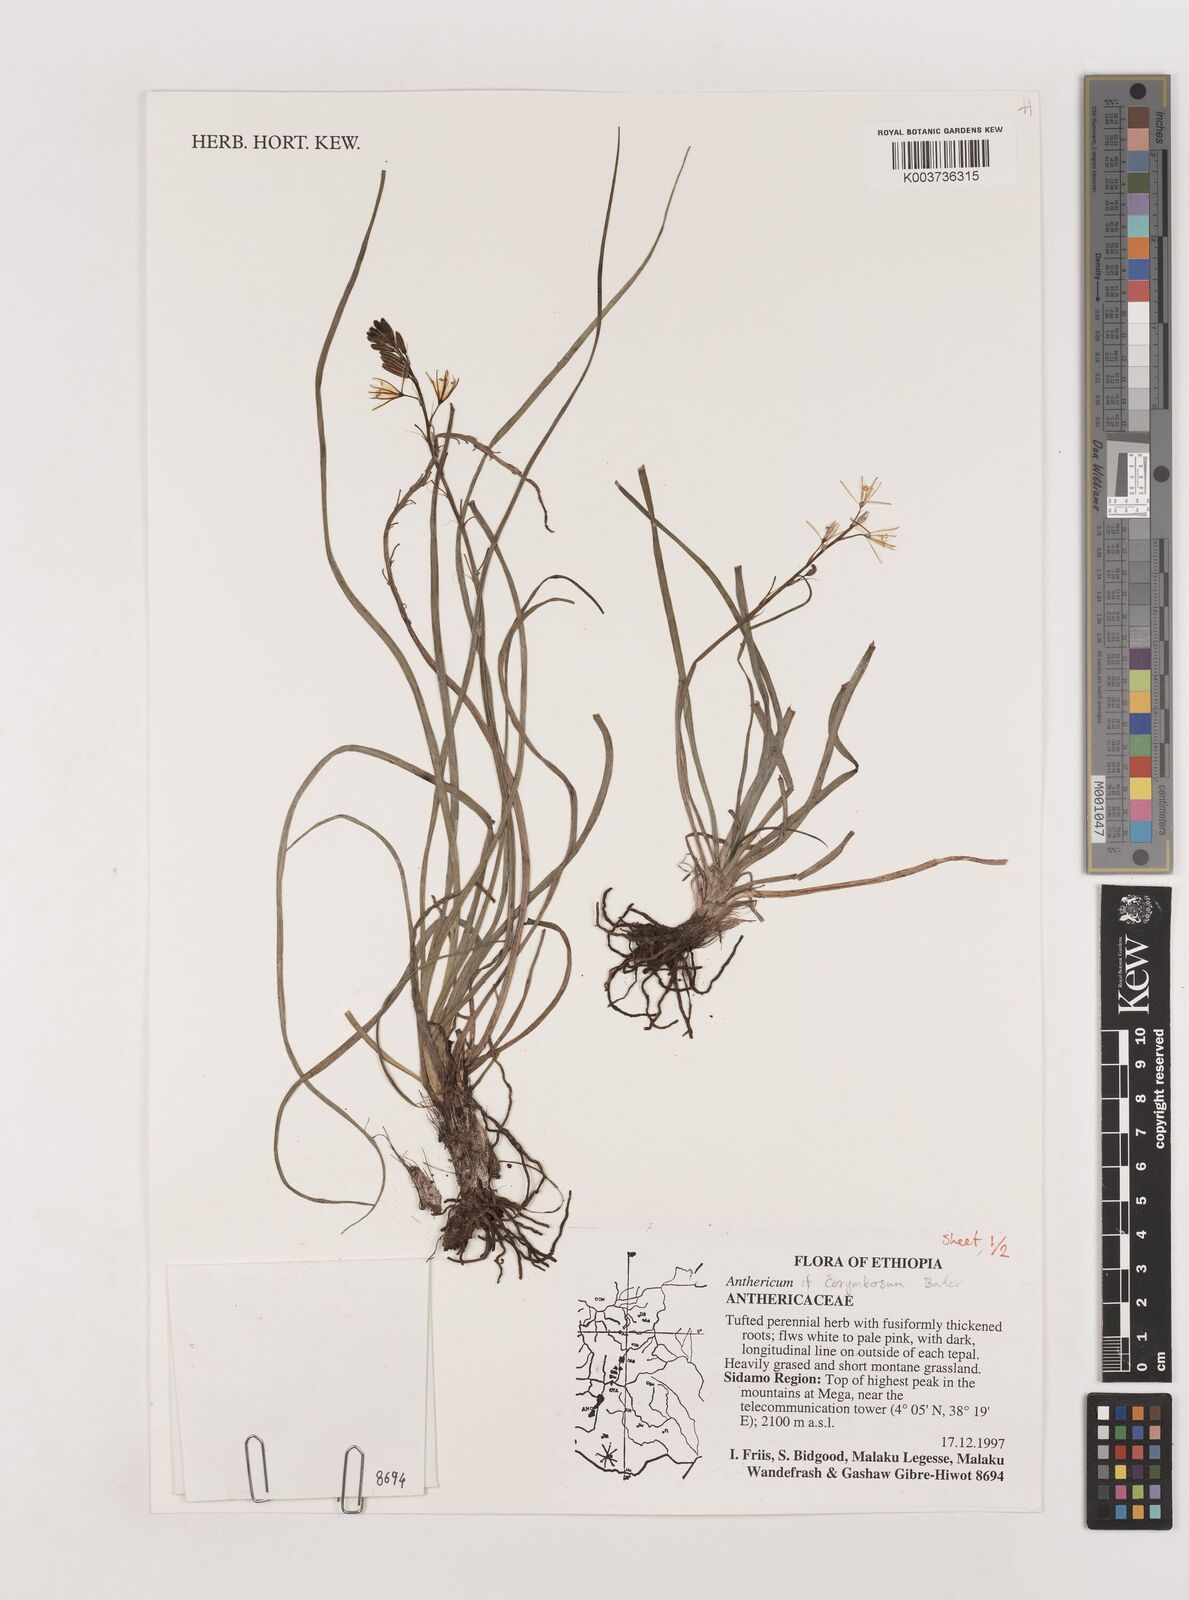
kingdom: Plantae
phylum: Tracheophyta
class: Liliopsida
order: Asparagales
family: Asparagaceae
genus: Anthericum
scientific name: Anthericum corymbosum
